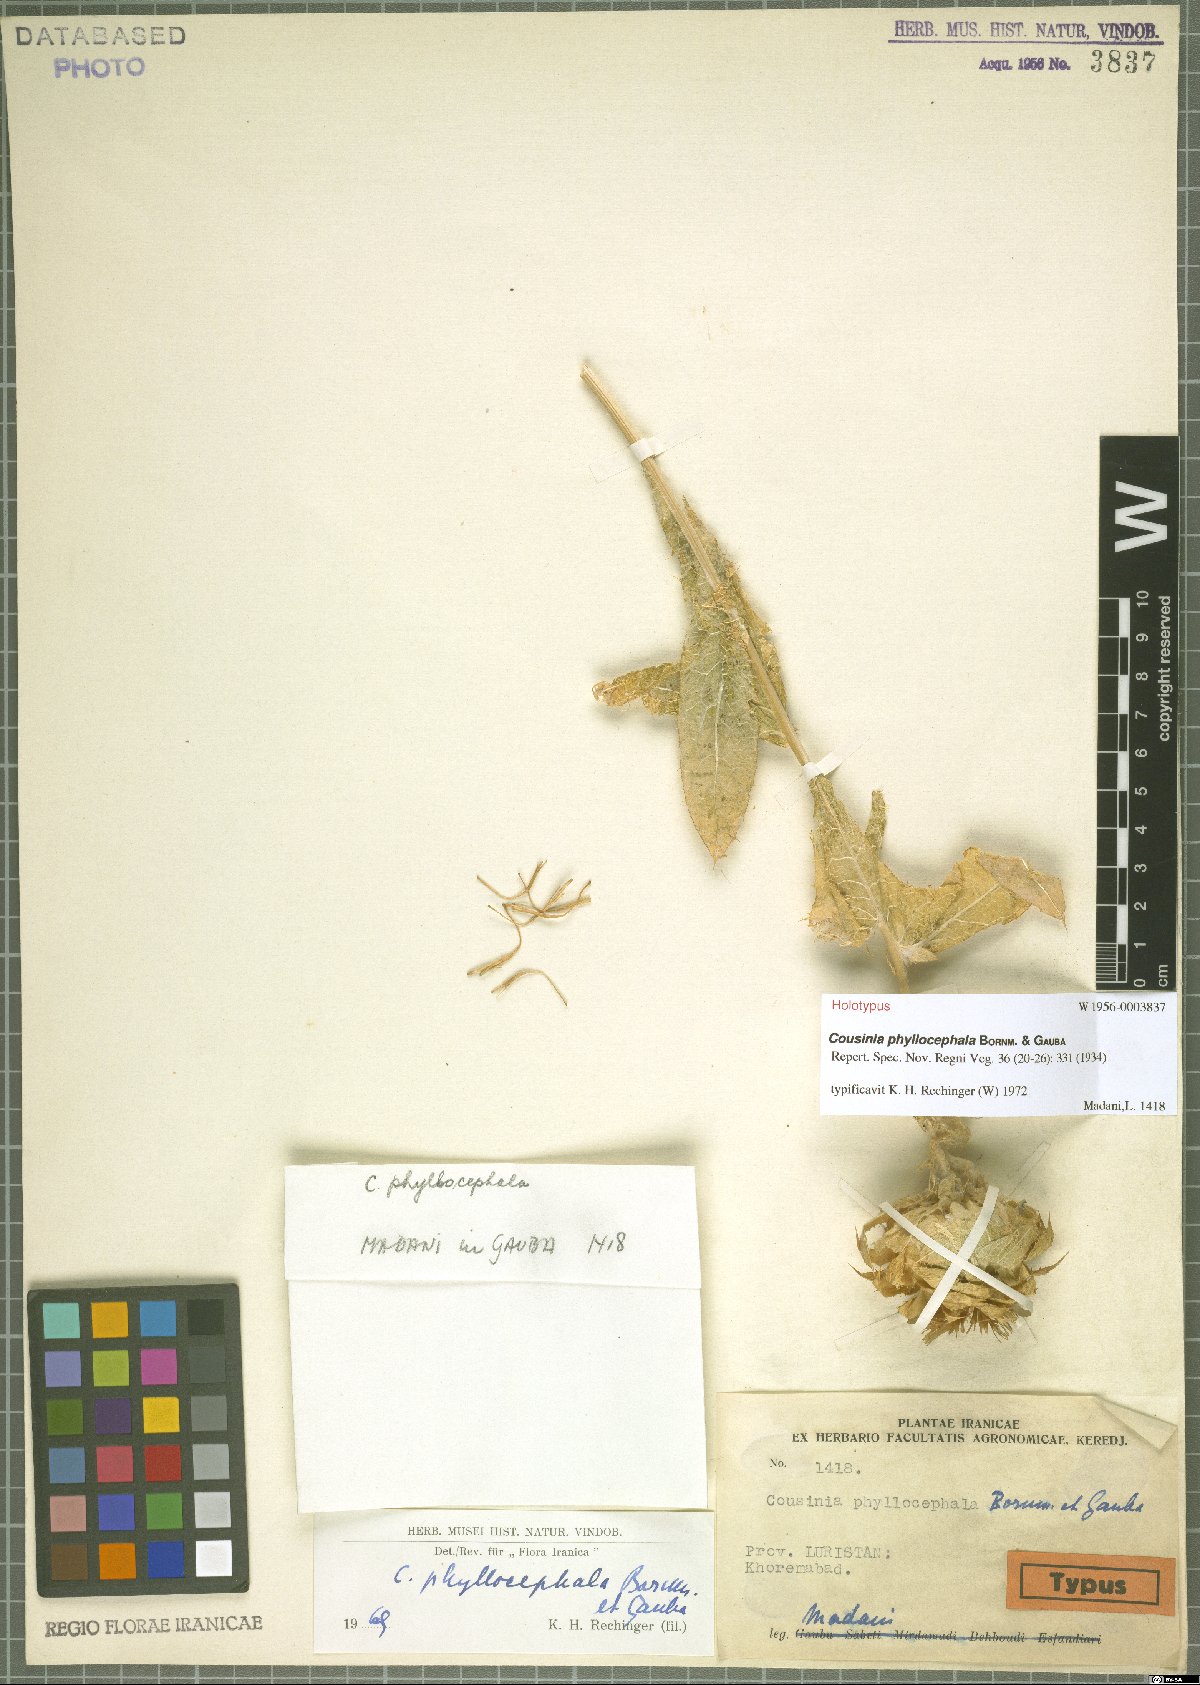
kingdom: Plantae
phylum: Tracheophyta
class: Magnoliopsida
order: Asterales
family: Asteraceae
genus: Cousinia
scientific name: Cousinia phyllocephala
